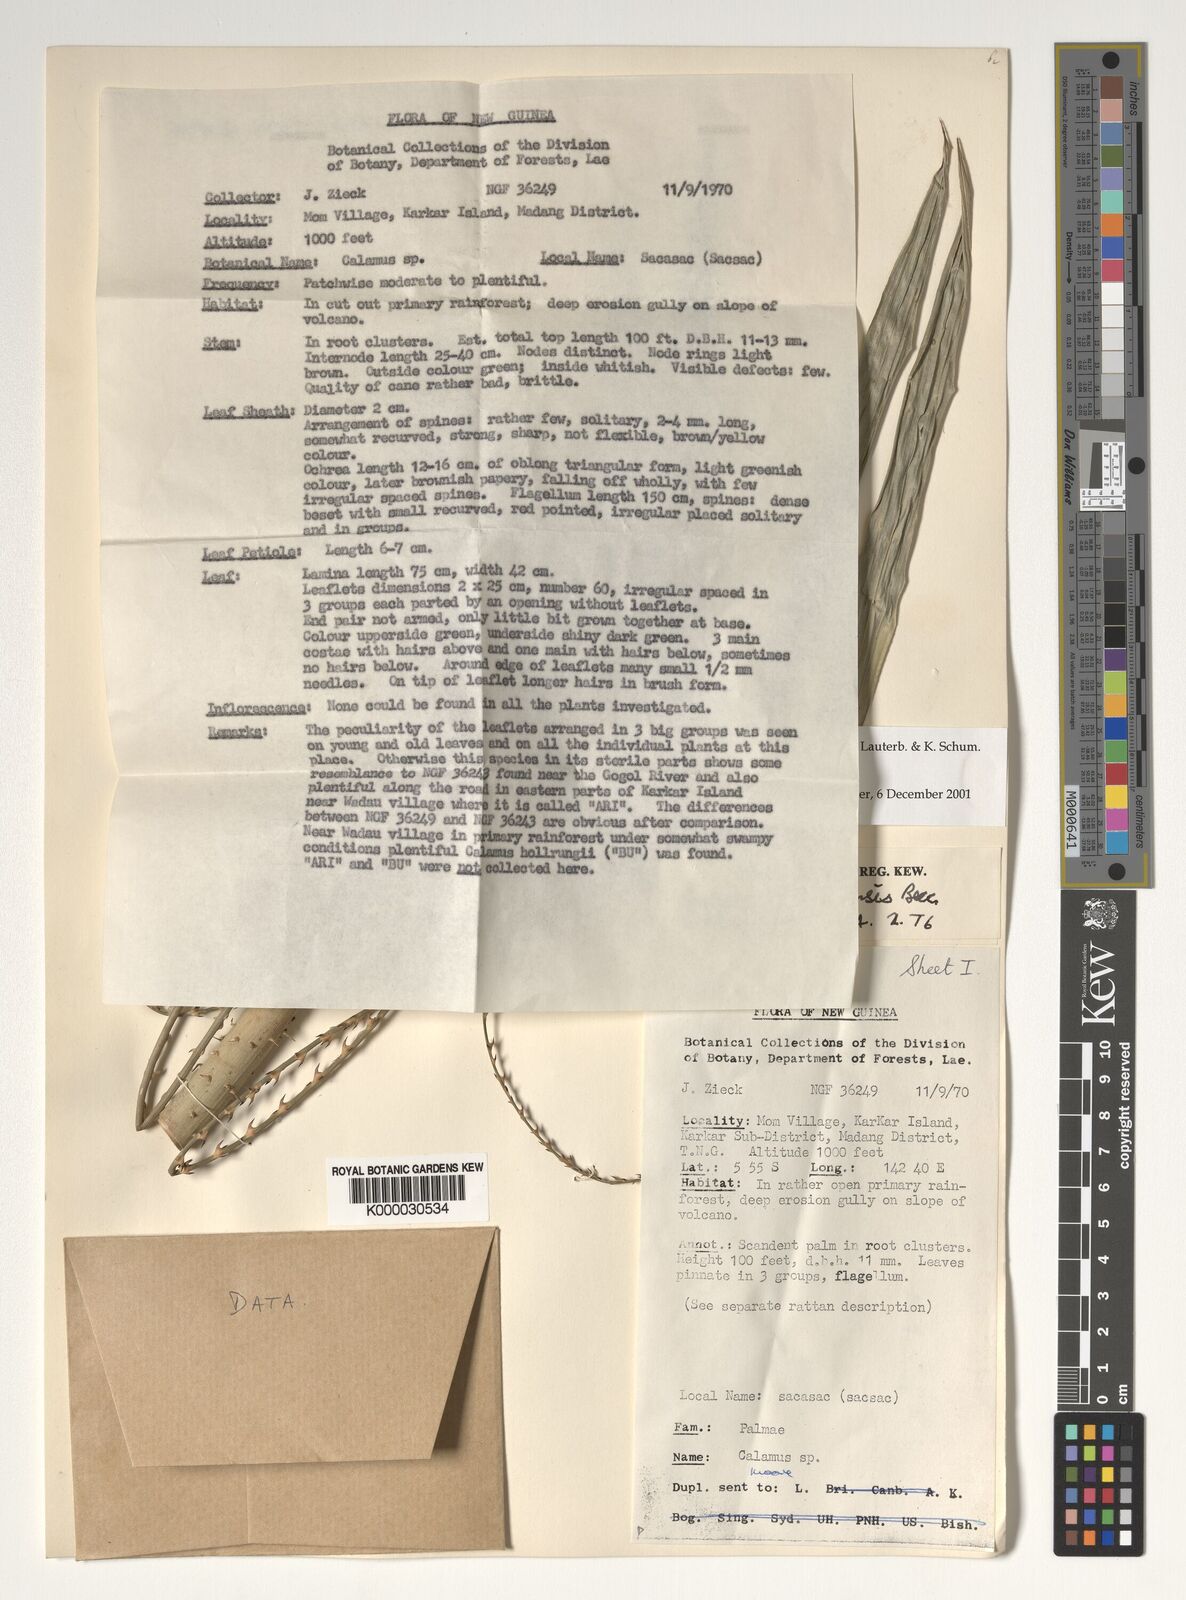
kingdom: Plantae
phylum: Tracheophyta
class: Liliopsida
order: Arecales
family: Arecaceae
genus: Calamus
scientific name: Calamus longipinna
